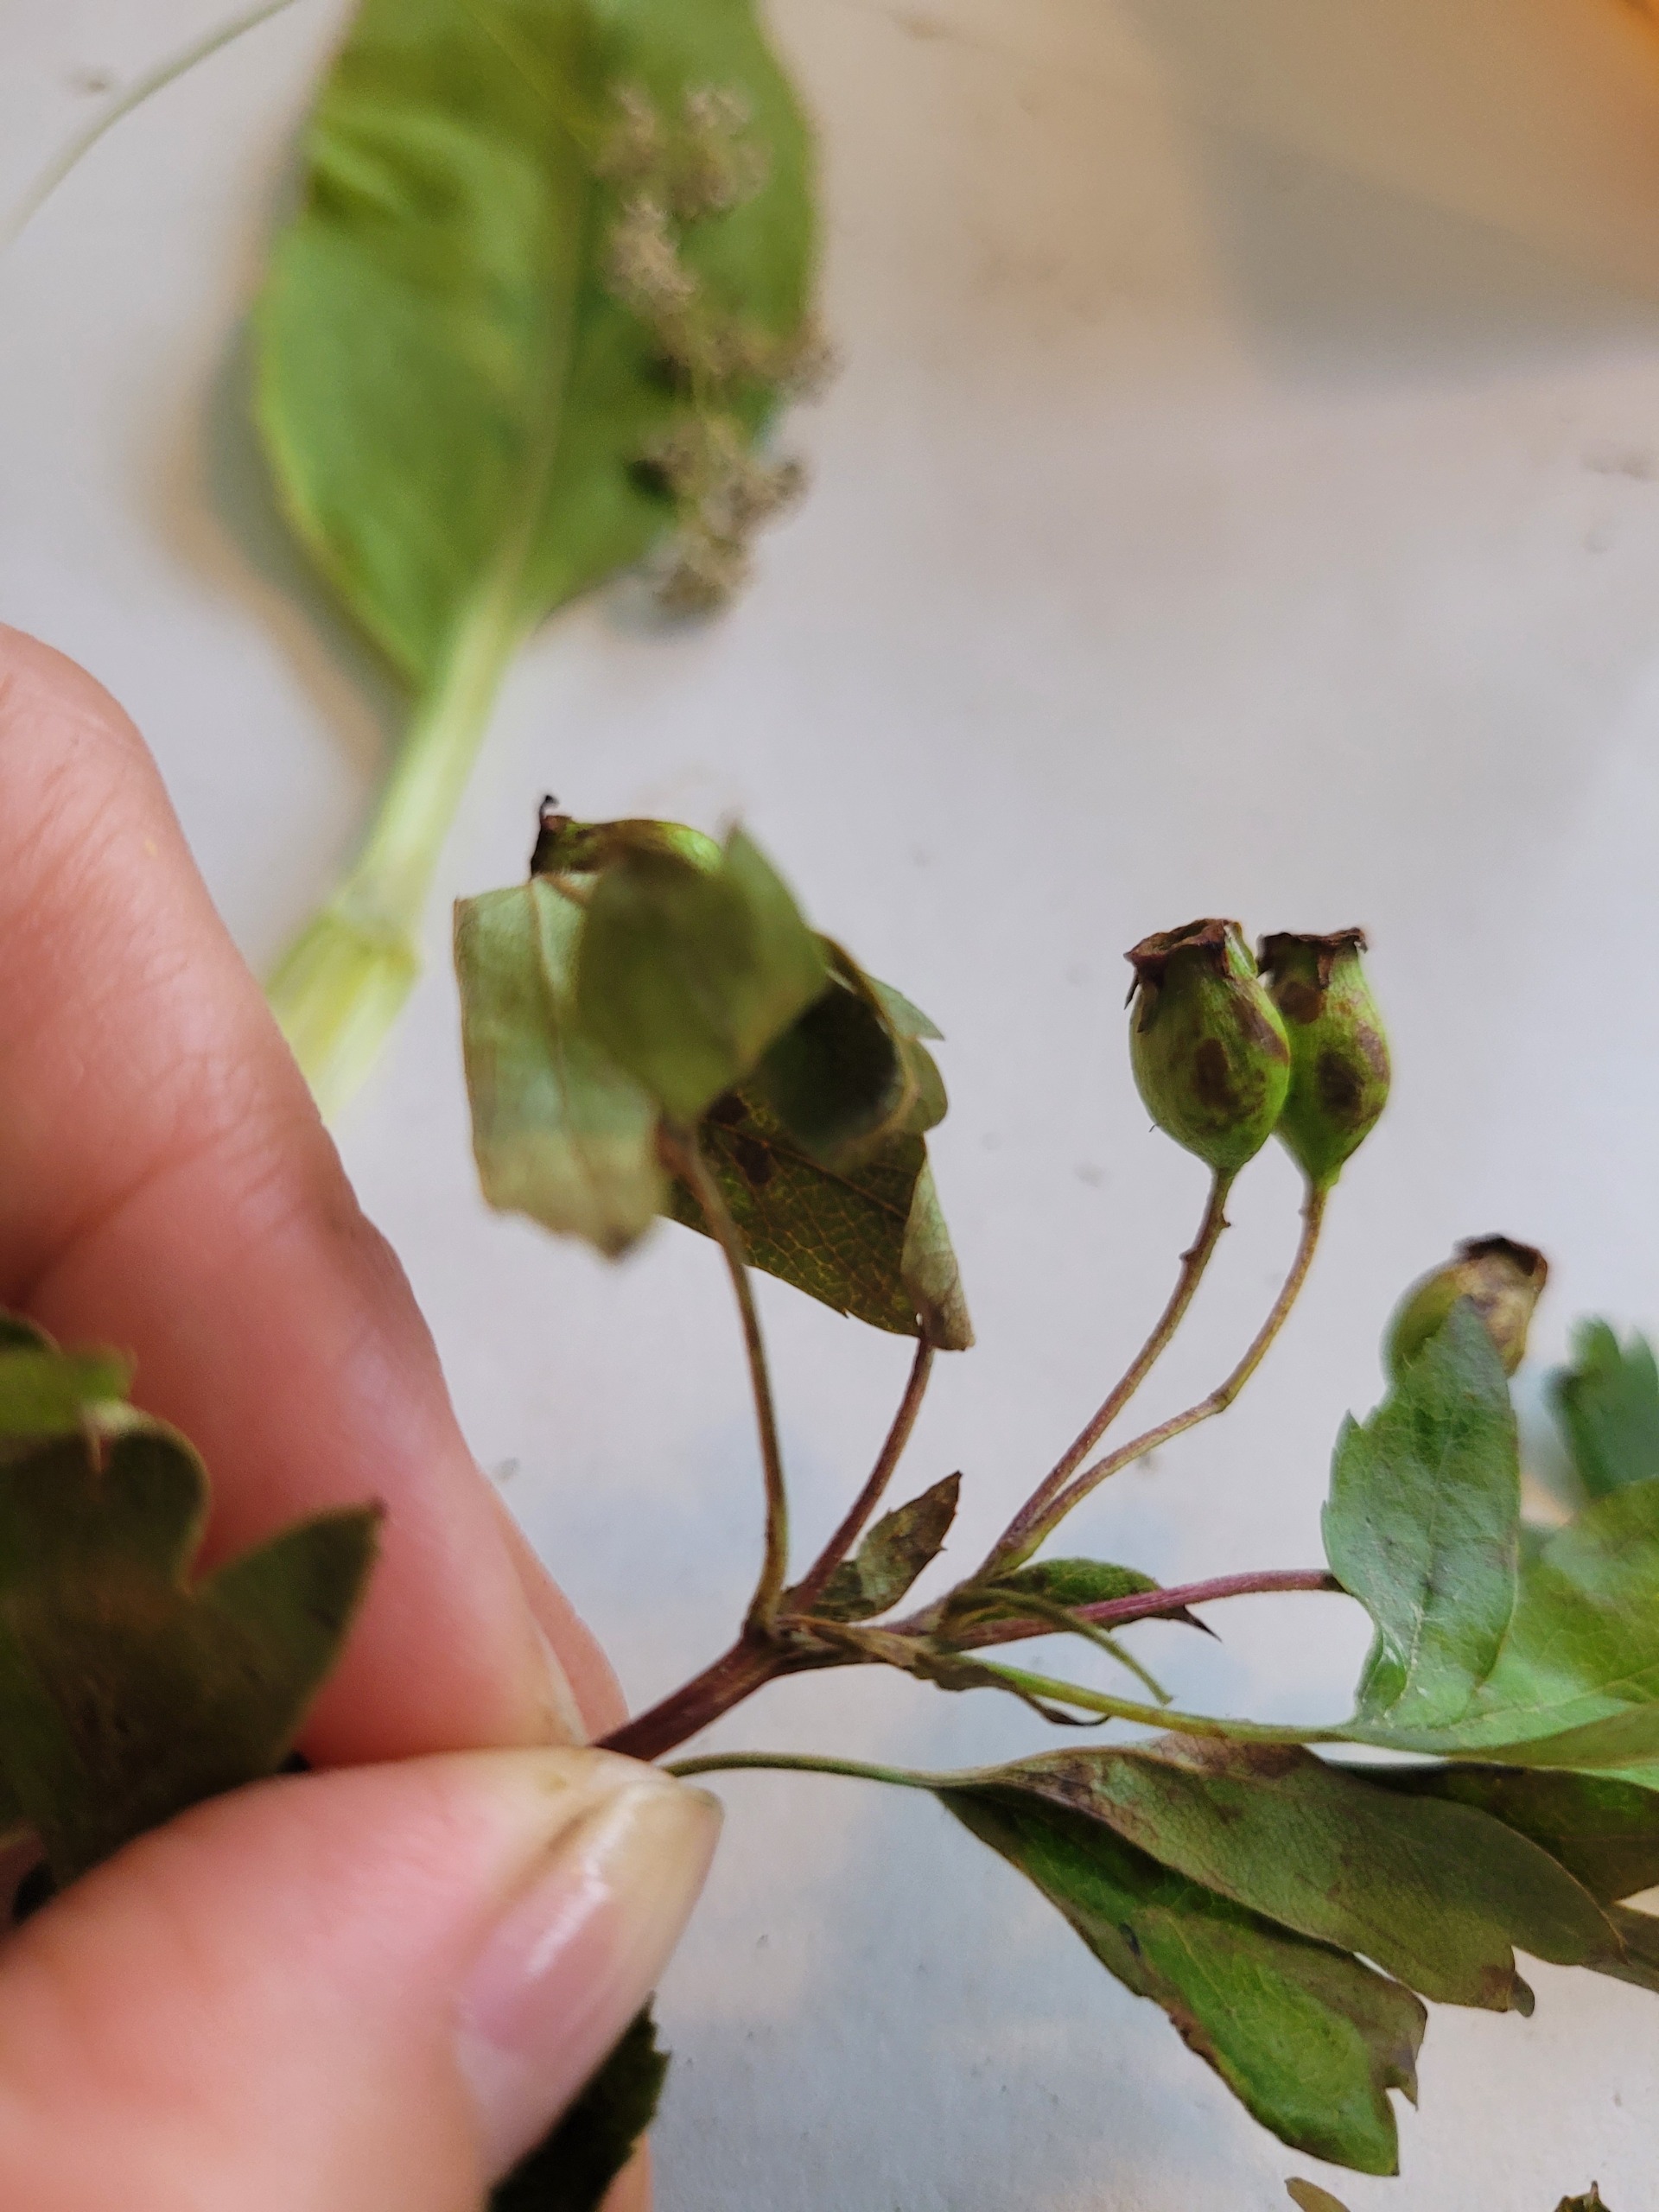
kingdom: Plantae
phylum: Tracheophyta
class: Magnoliopsida
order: Rosales
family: Rosaceae
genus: Crataegus
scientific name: Crataegus monogyna
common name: Engriflet hvidtjørn
